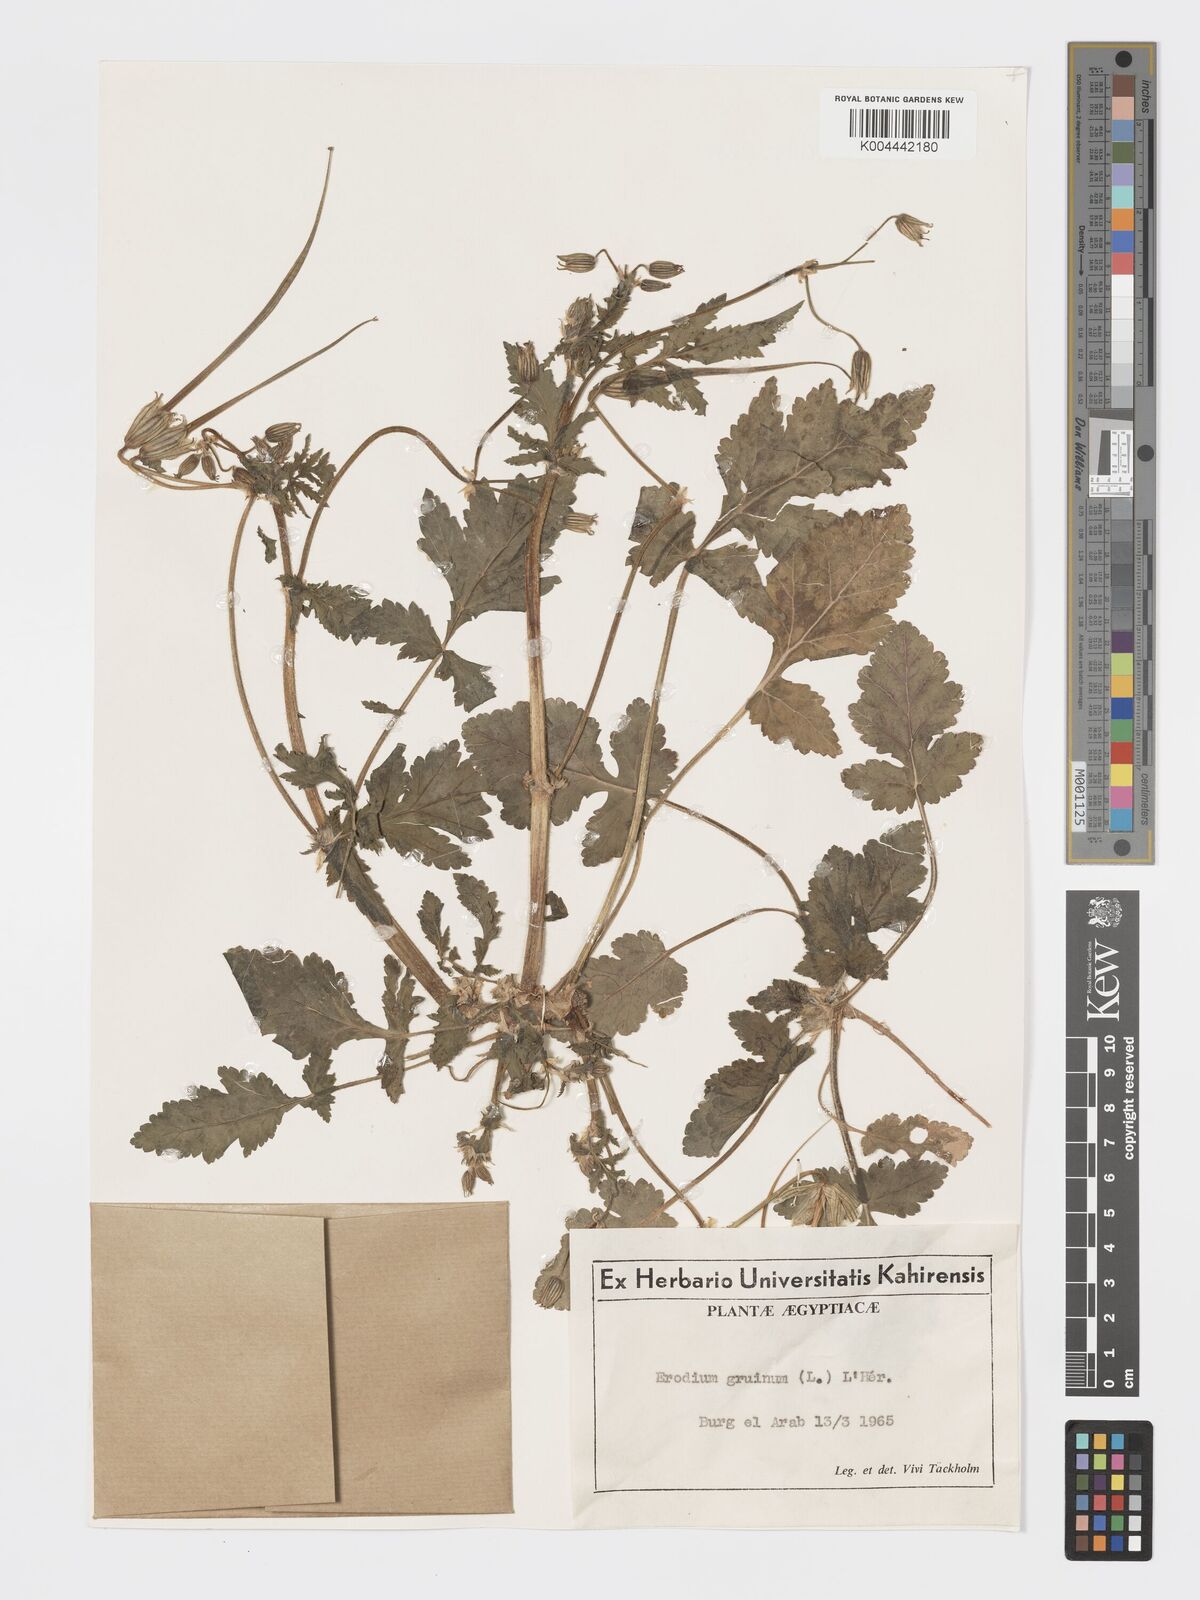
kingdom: Plantae
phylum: Tracheophyta
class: Magnoliopsida
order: Geraniales
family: Geraniaceae
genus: Erodium
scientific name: Erodium gruinum
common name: Iranian stork's bill
